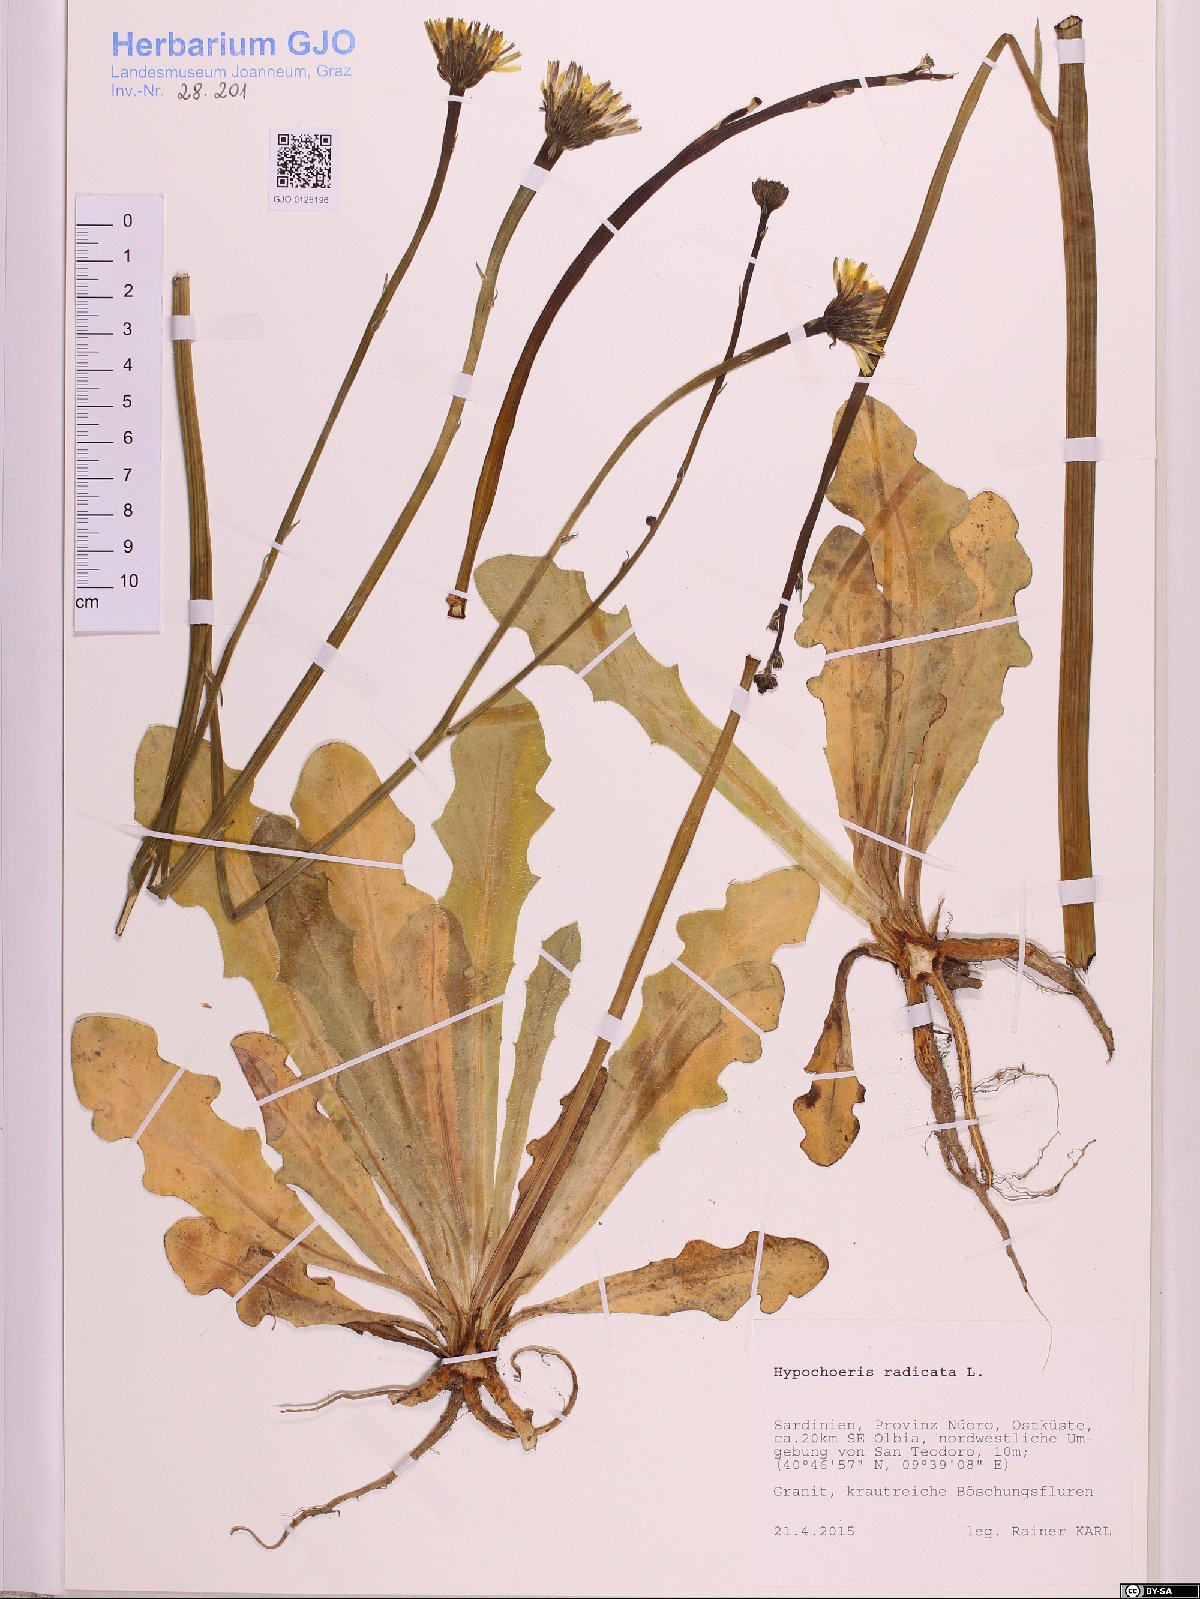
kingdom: Plantae
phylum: Tracheophyta
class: Magnoliopsida
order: Asterales
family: Asteraceae
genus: Hypochoeris
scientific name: Hypochoeris radicata
